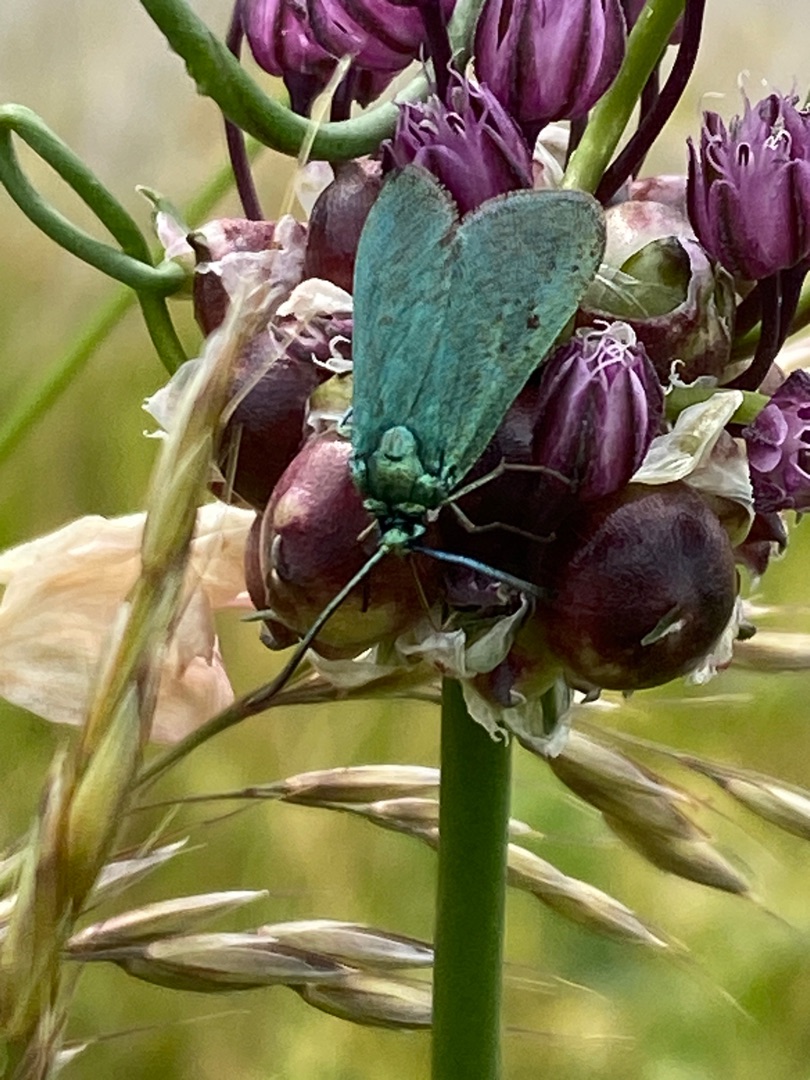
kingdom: Animalia
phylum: Arthropoda
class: Insecta
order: Lepidoptera
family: Zygaenidae
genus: Adscita
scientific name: Adscita statices
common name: Metalvinge
